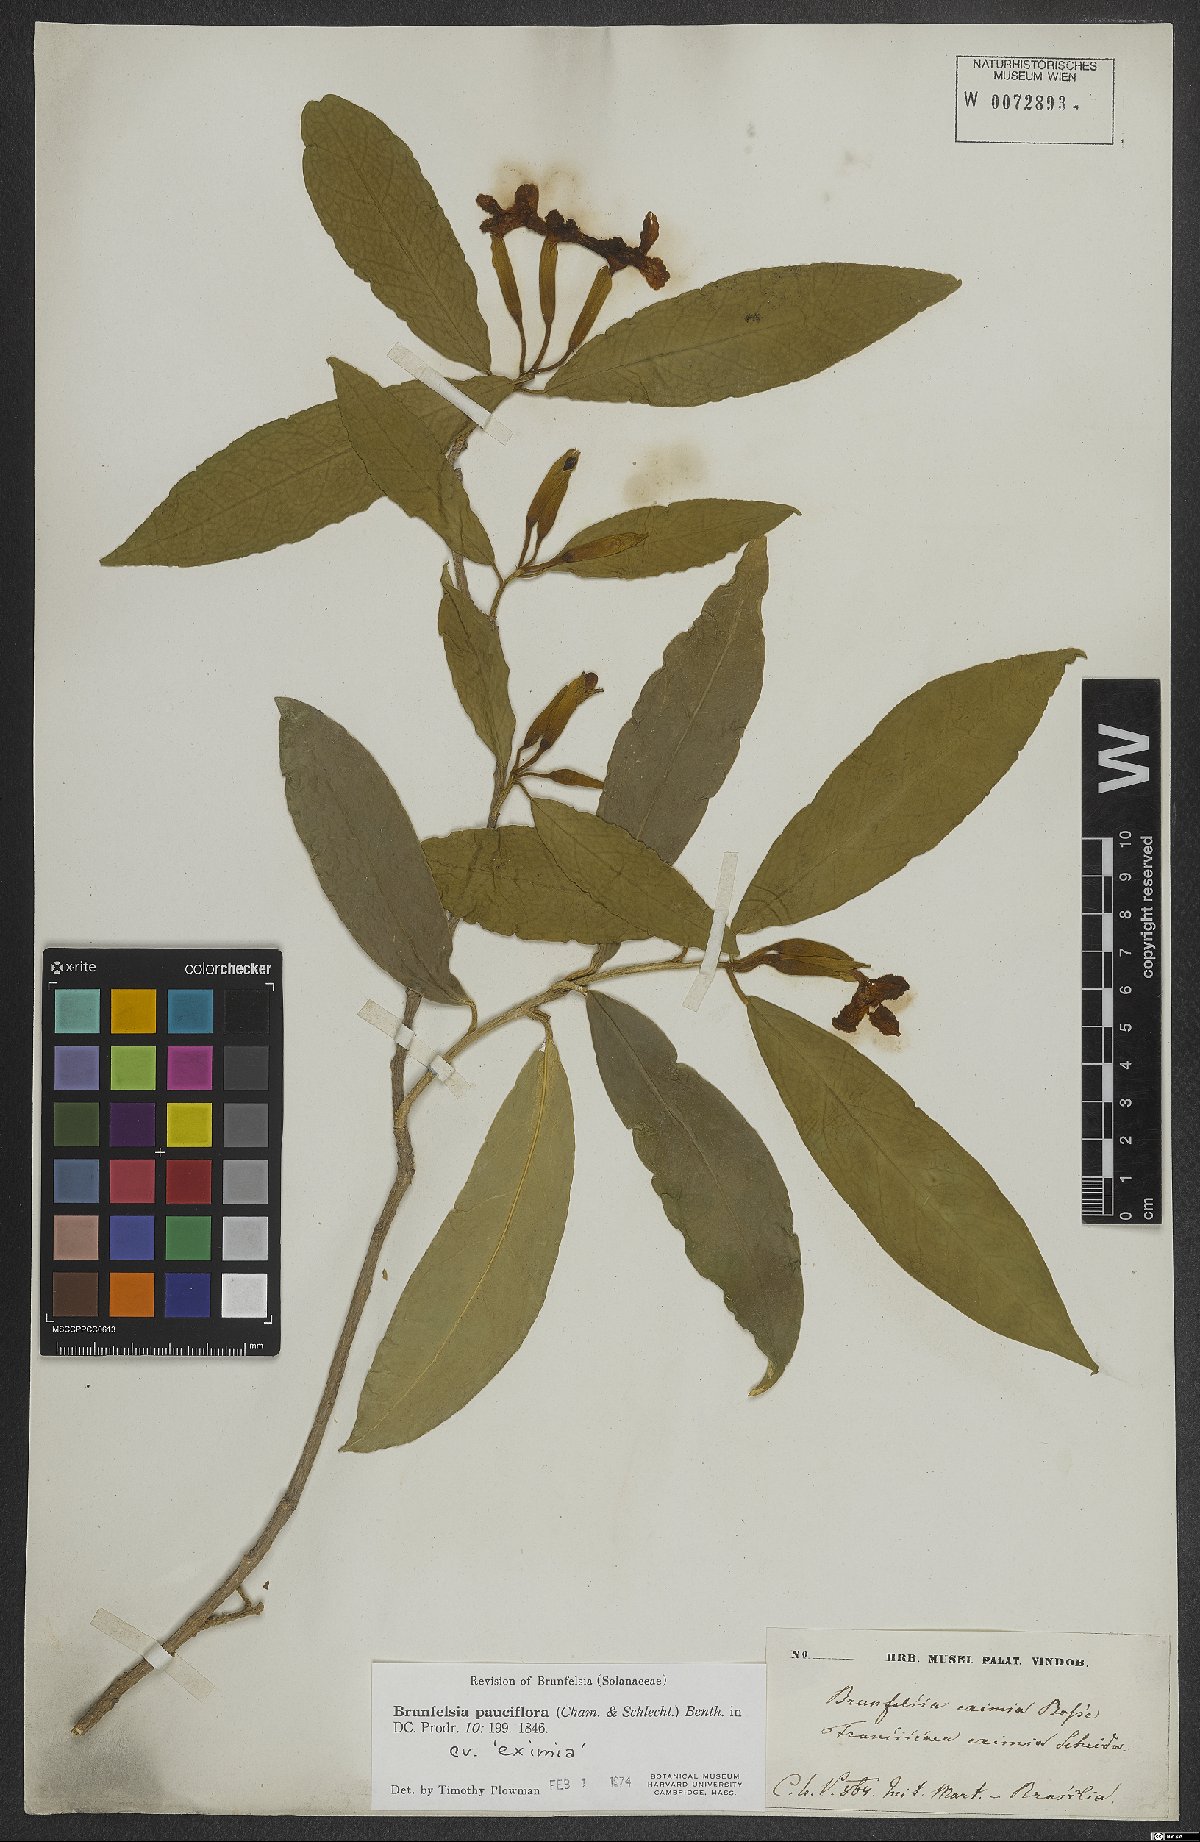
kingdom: Plantae
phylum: Tracheophyta
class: Magnoliopsida
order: Solanales
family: Solanaceae
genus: Brunfelsia
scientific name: Brunfelsia pauciflora
